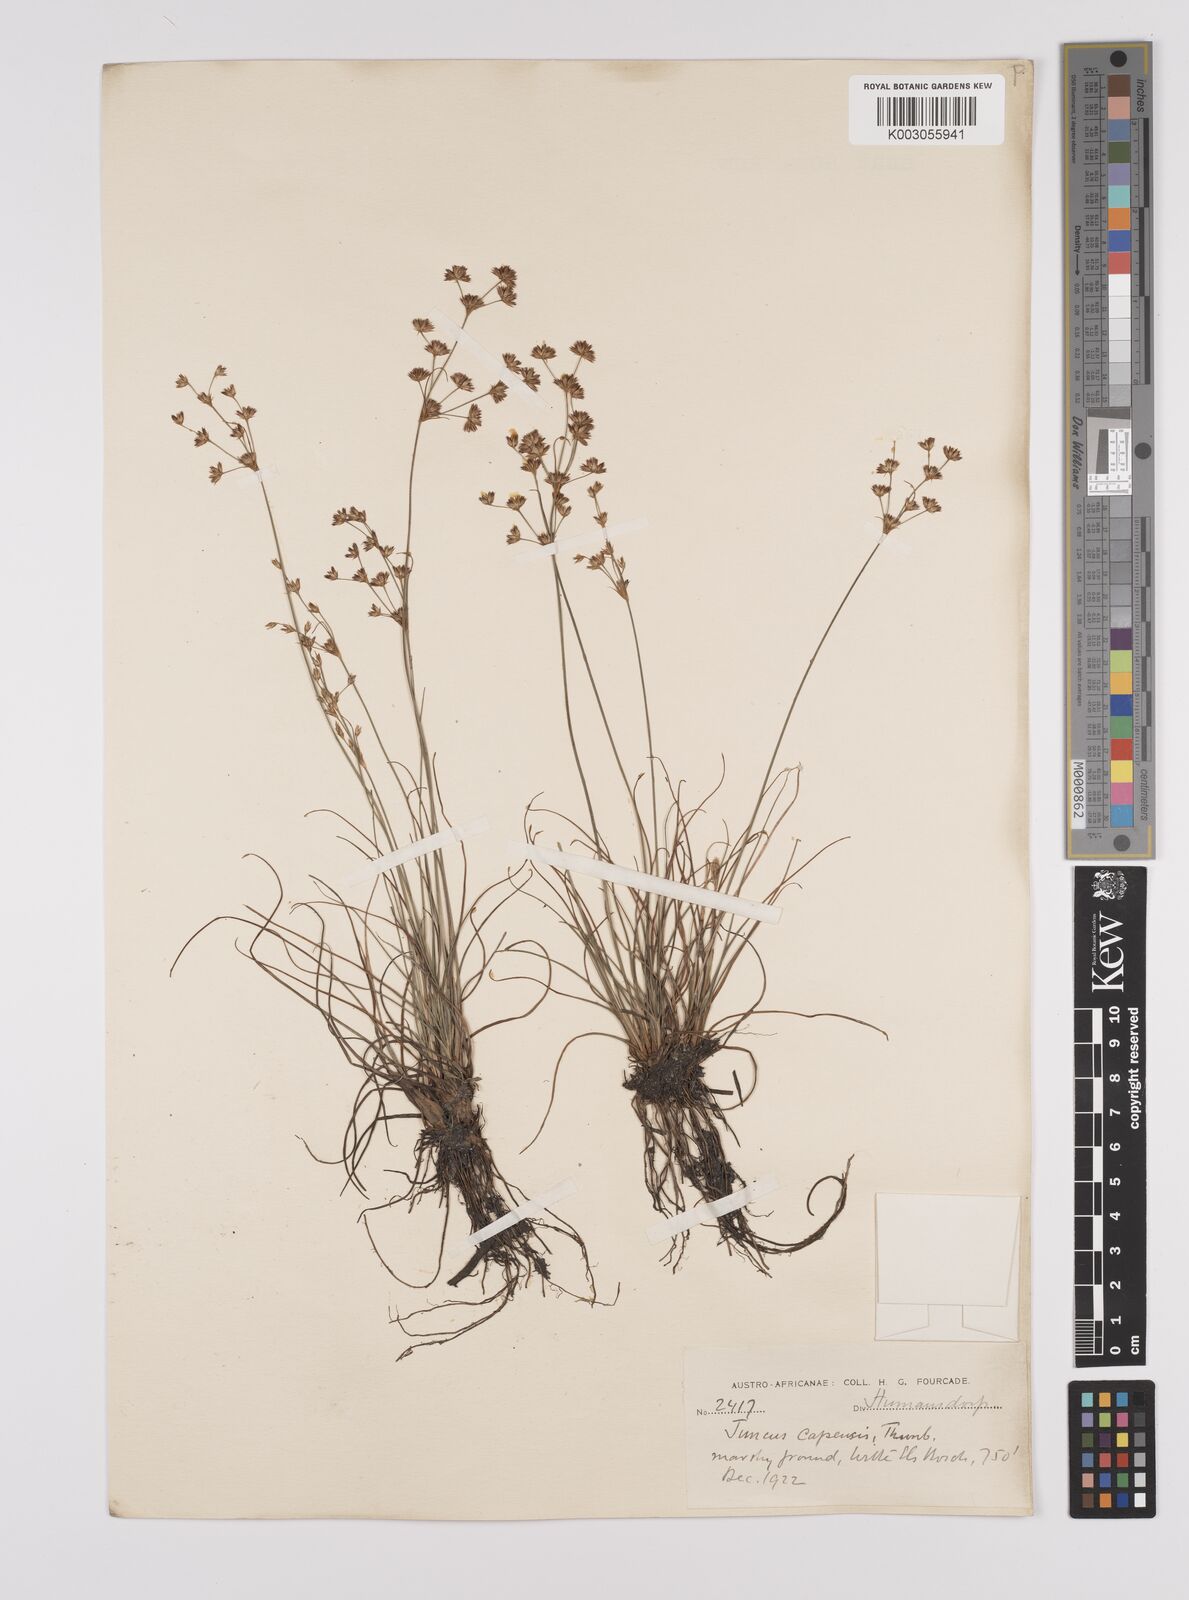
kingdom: Plantae
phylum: Tracheophyta
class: Liliopsida
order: Poales
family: Juncaceae
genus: Juncus
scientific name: Juncus capensis
